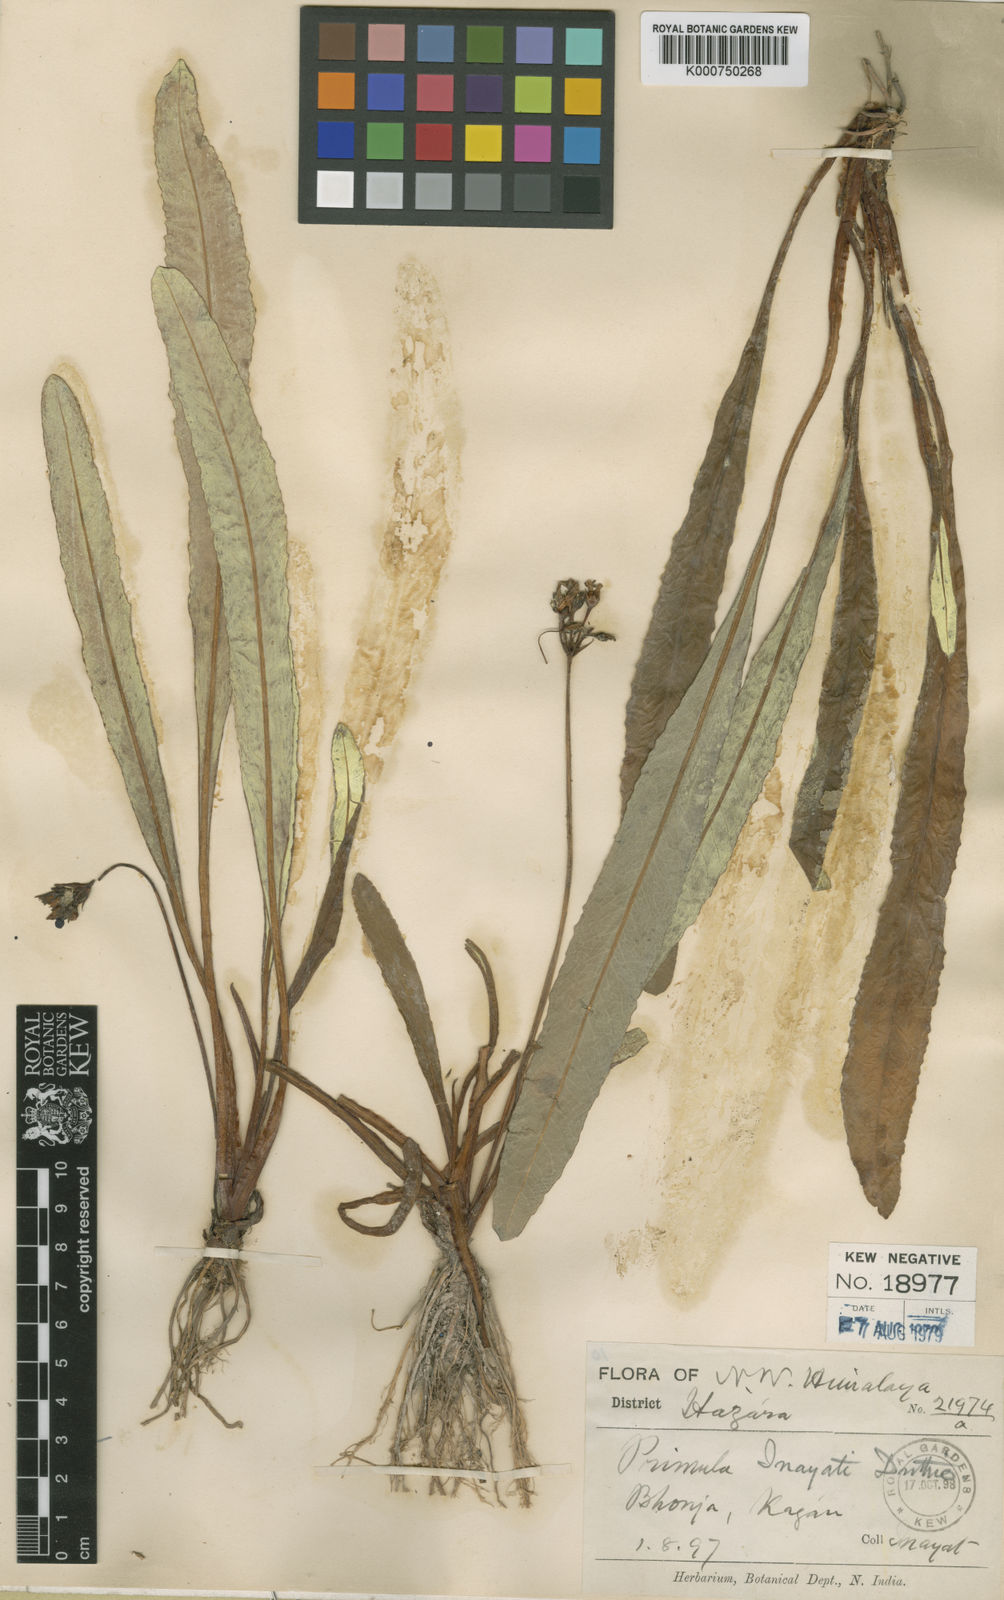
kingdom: Plantae
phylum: Tracheophyta
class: Magnoliopsida
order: Ericales
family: Primulaceae
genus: Primula
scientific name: Primula inayatii
